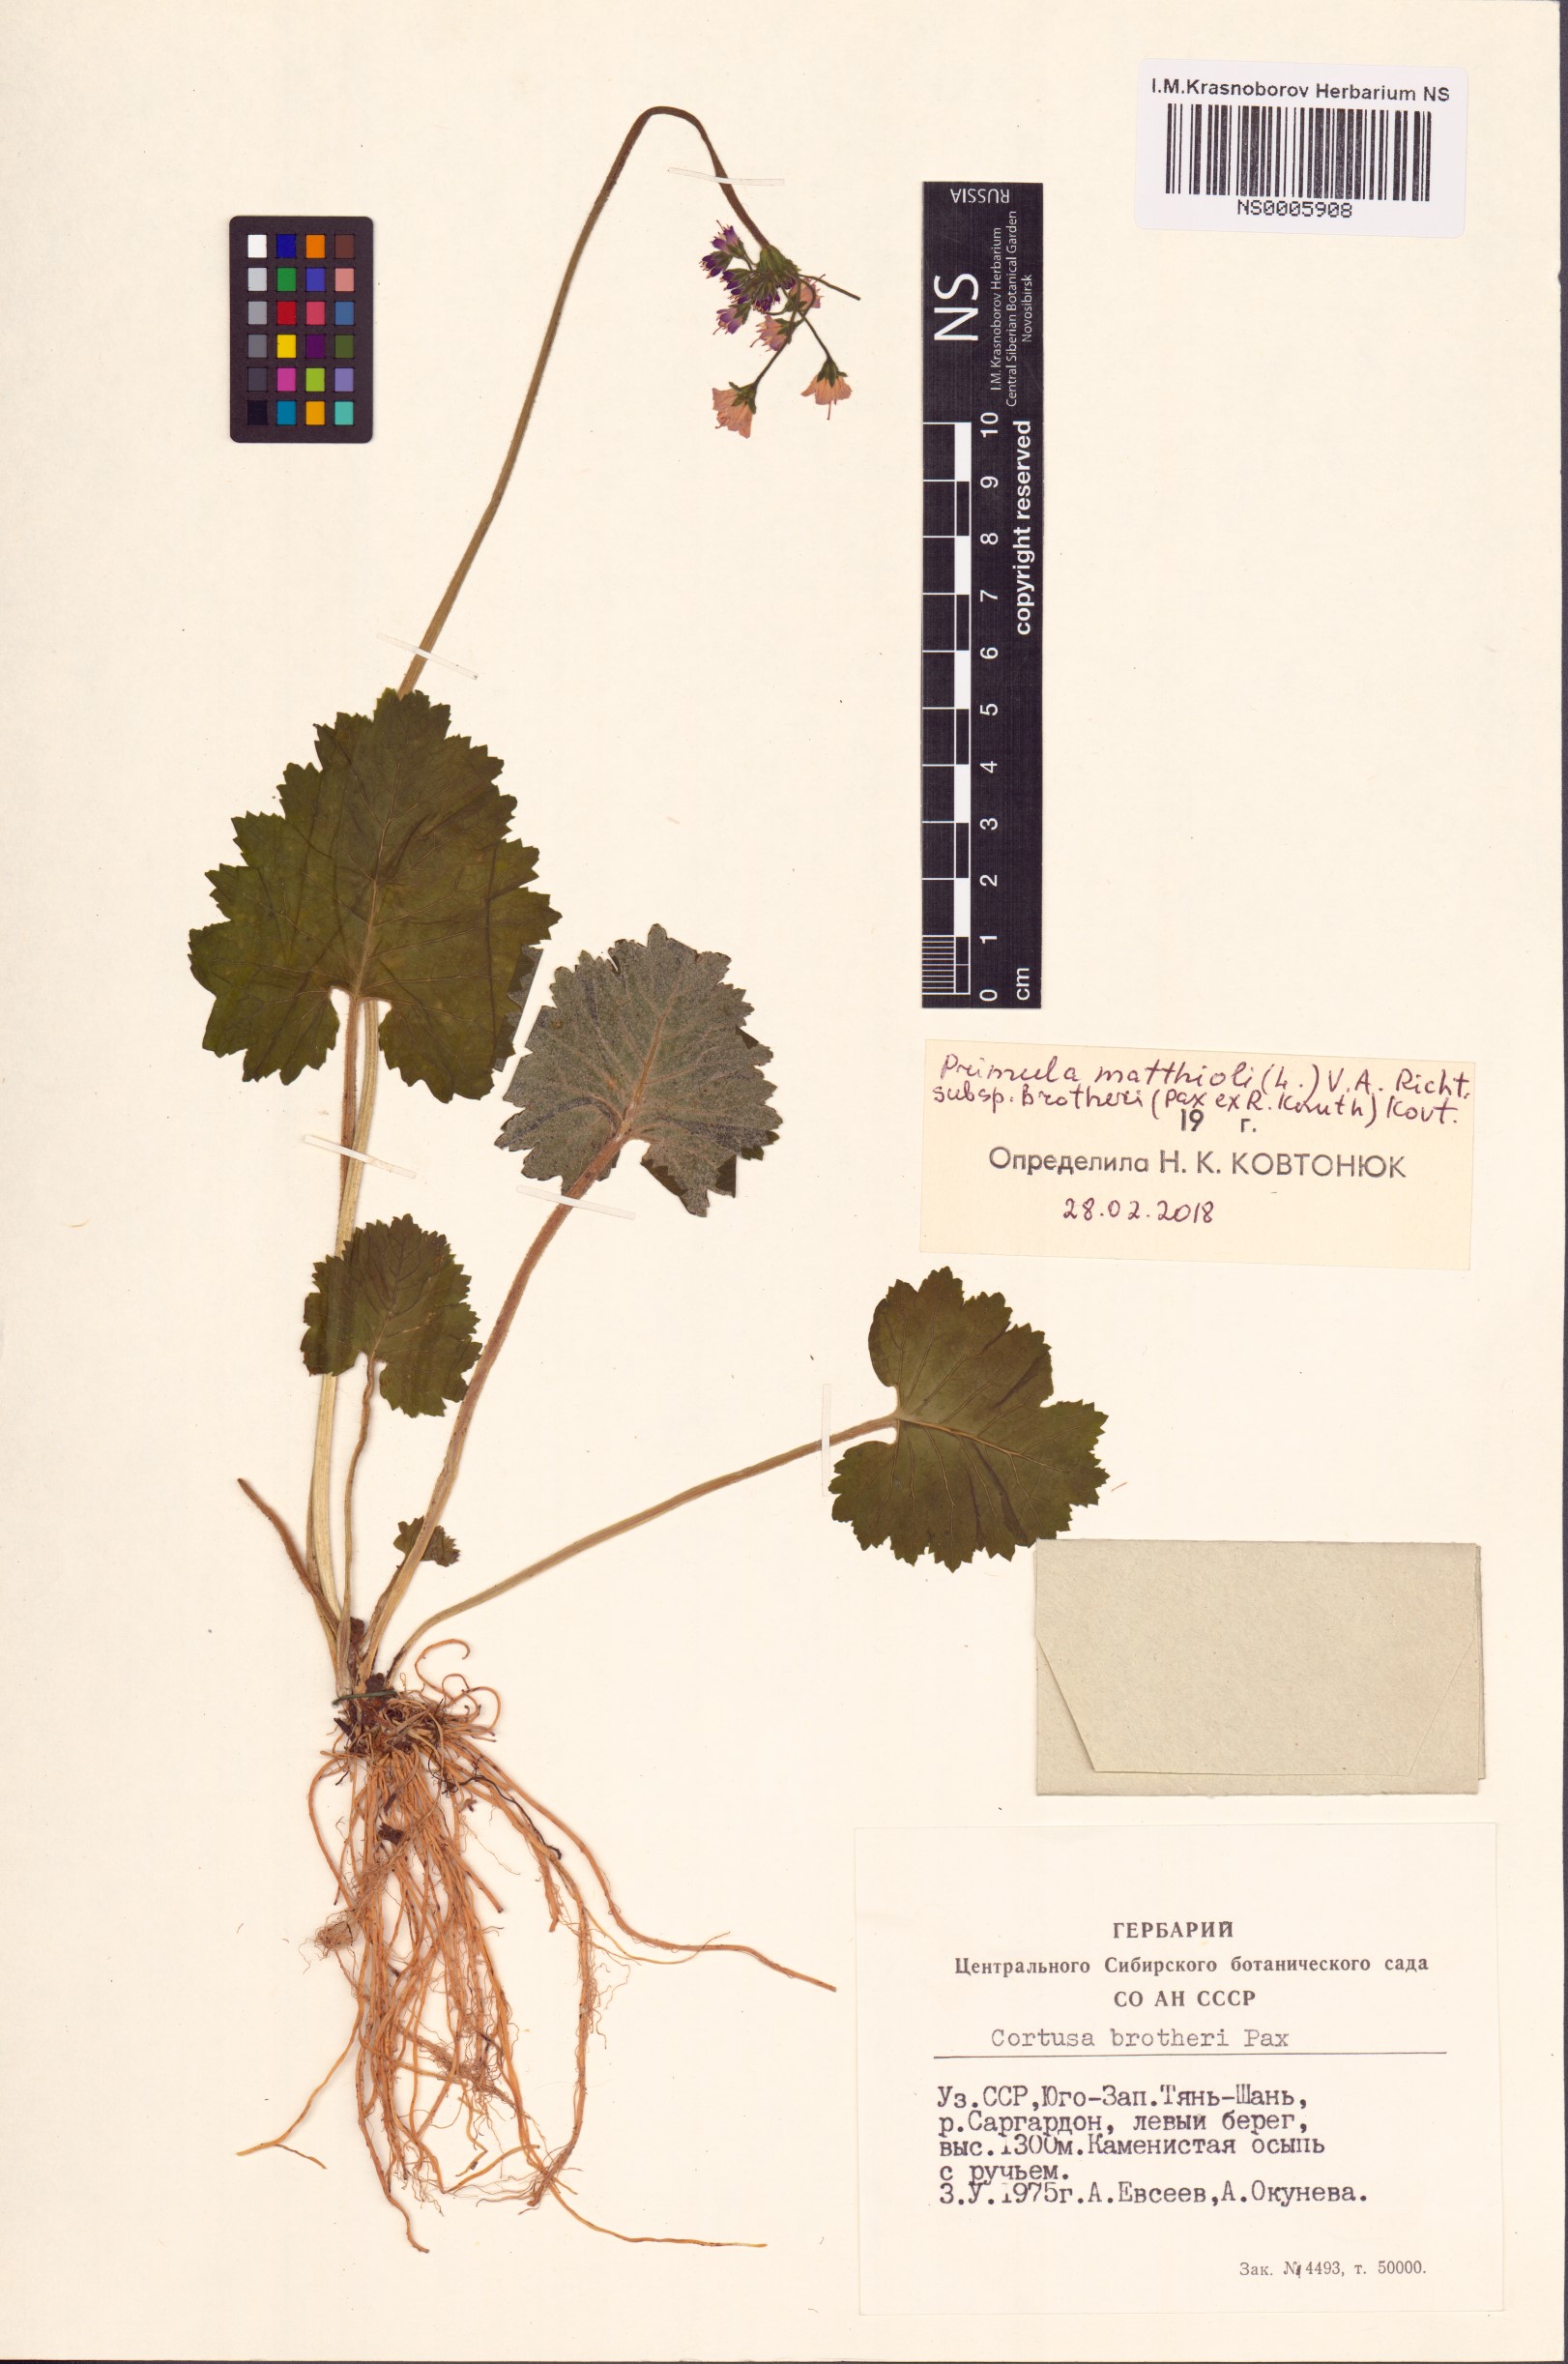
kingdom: Plantae
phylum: Tracheophyta
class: Magnoliopsida
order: Ericales
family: Primulaceae
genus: Primula
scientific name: Primula matthioli
